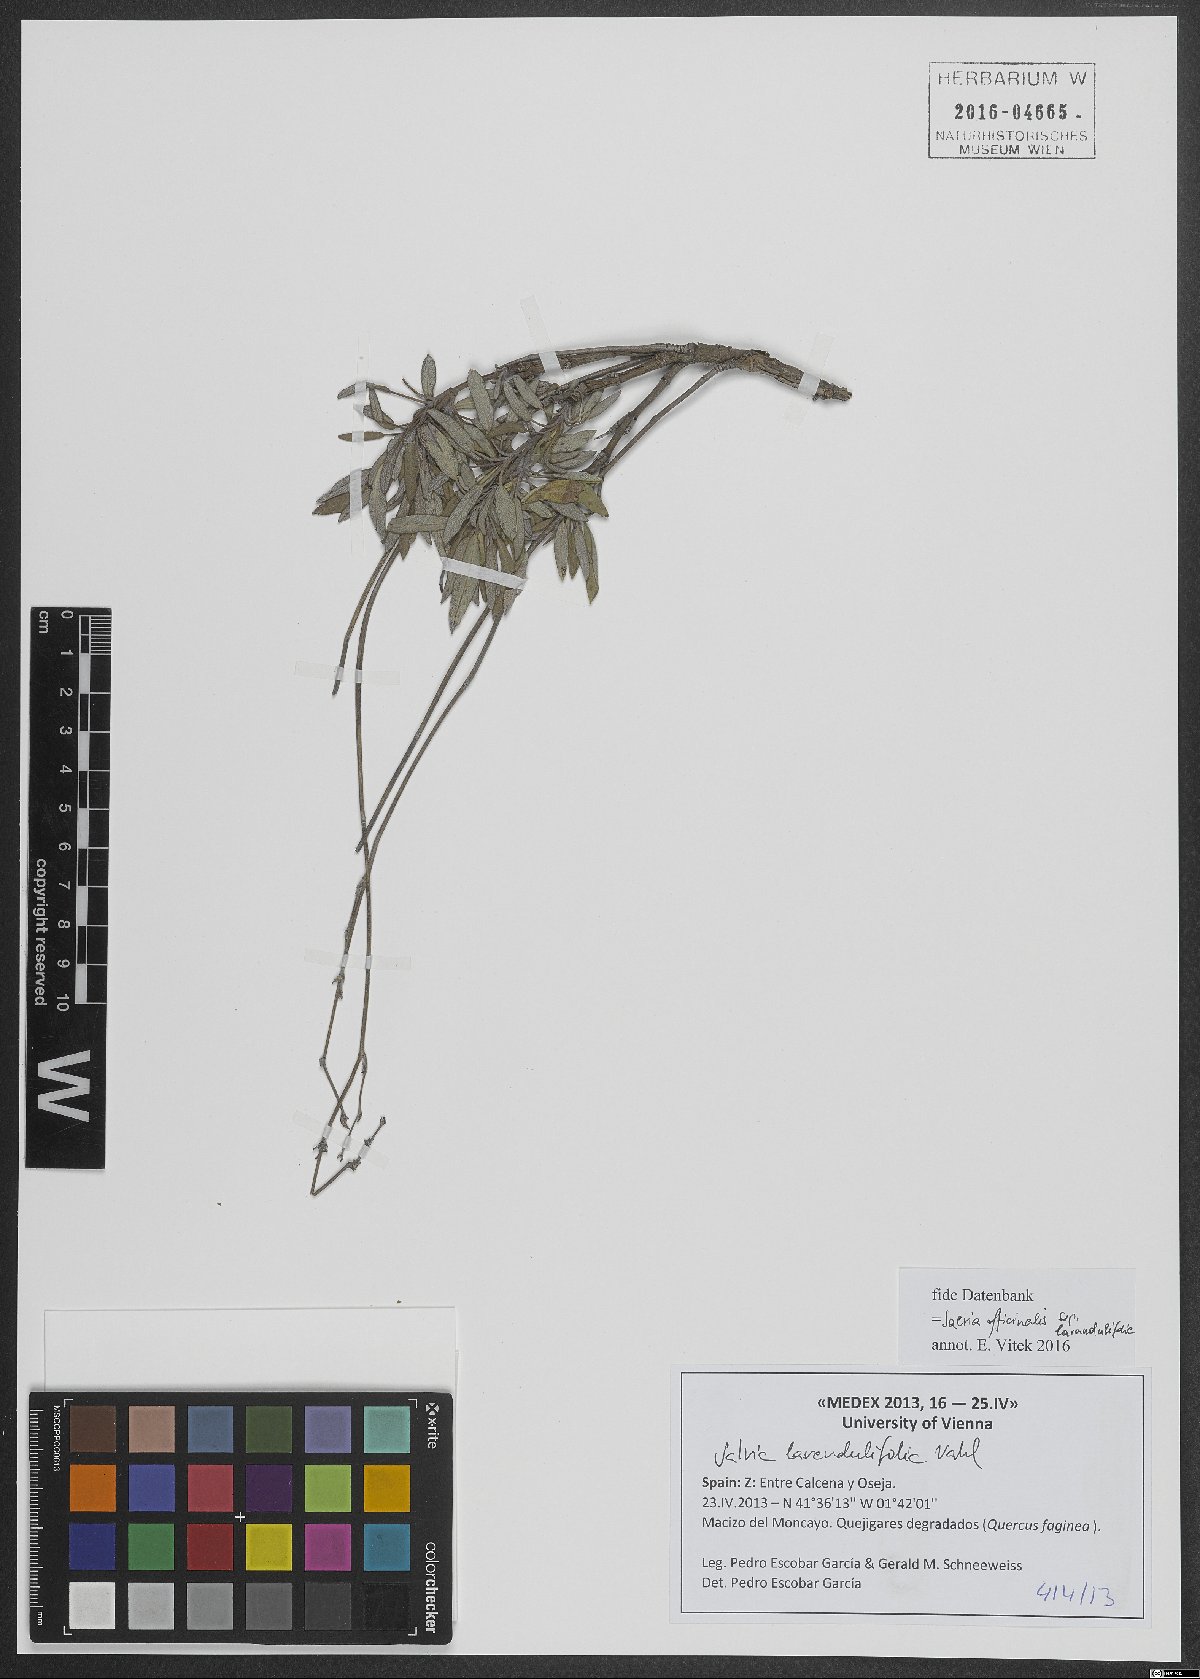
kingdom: Plantae
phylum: Tracheophyta
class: Magnoliopsida
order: Lamiales
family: Lamiaceae
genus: Salvia
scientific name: Salvia officinalis
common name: Sage
